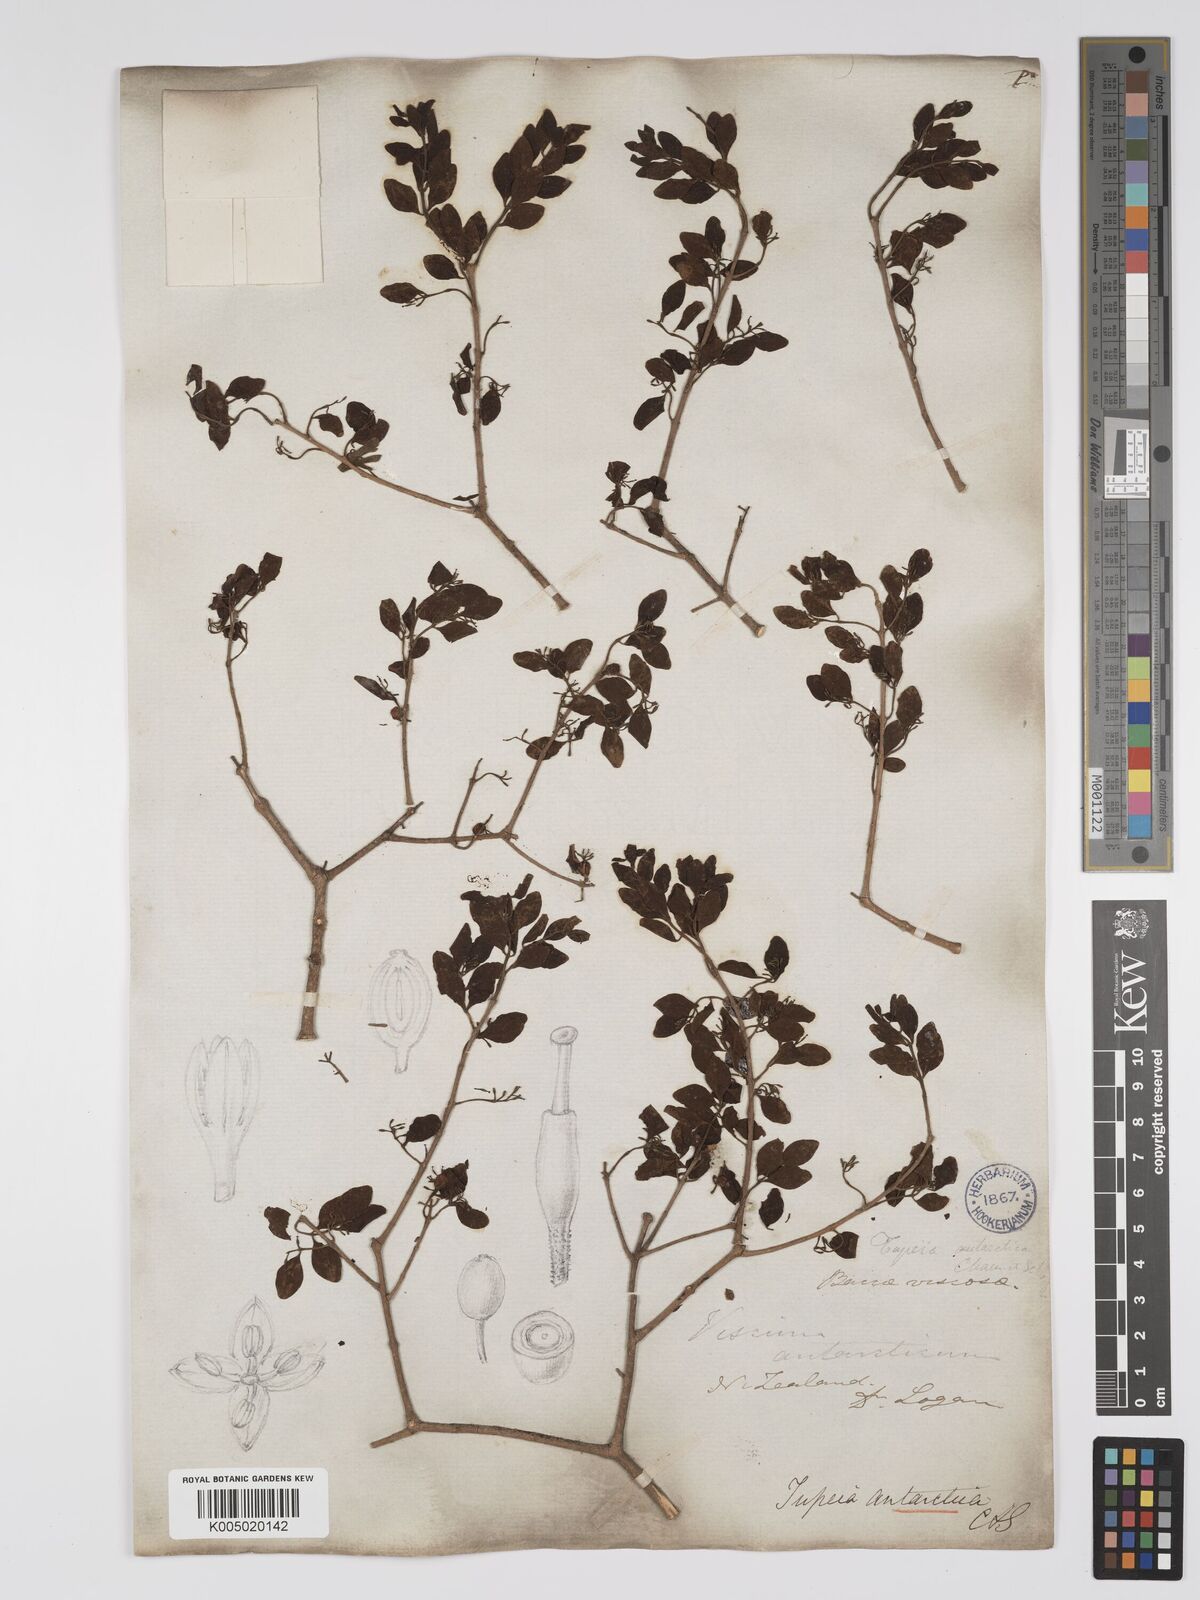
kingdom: Plantae
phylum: Tracheophyta
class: Magnoliopsida
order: Santalales
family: Loranthaceae
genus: Tupeia
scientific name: Tupeia antarctica
